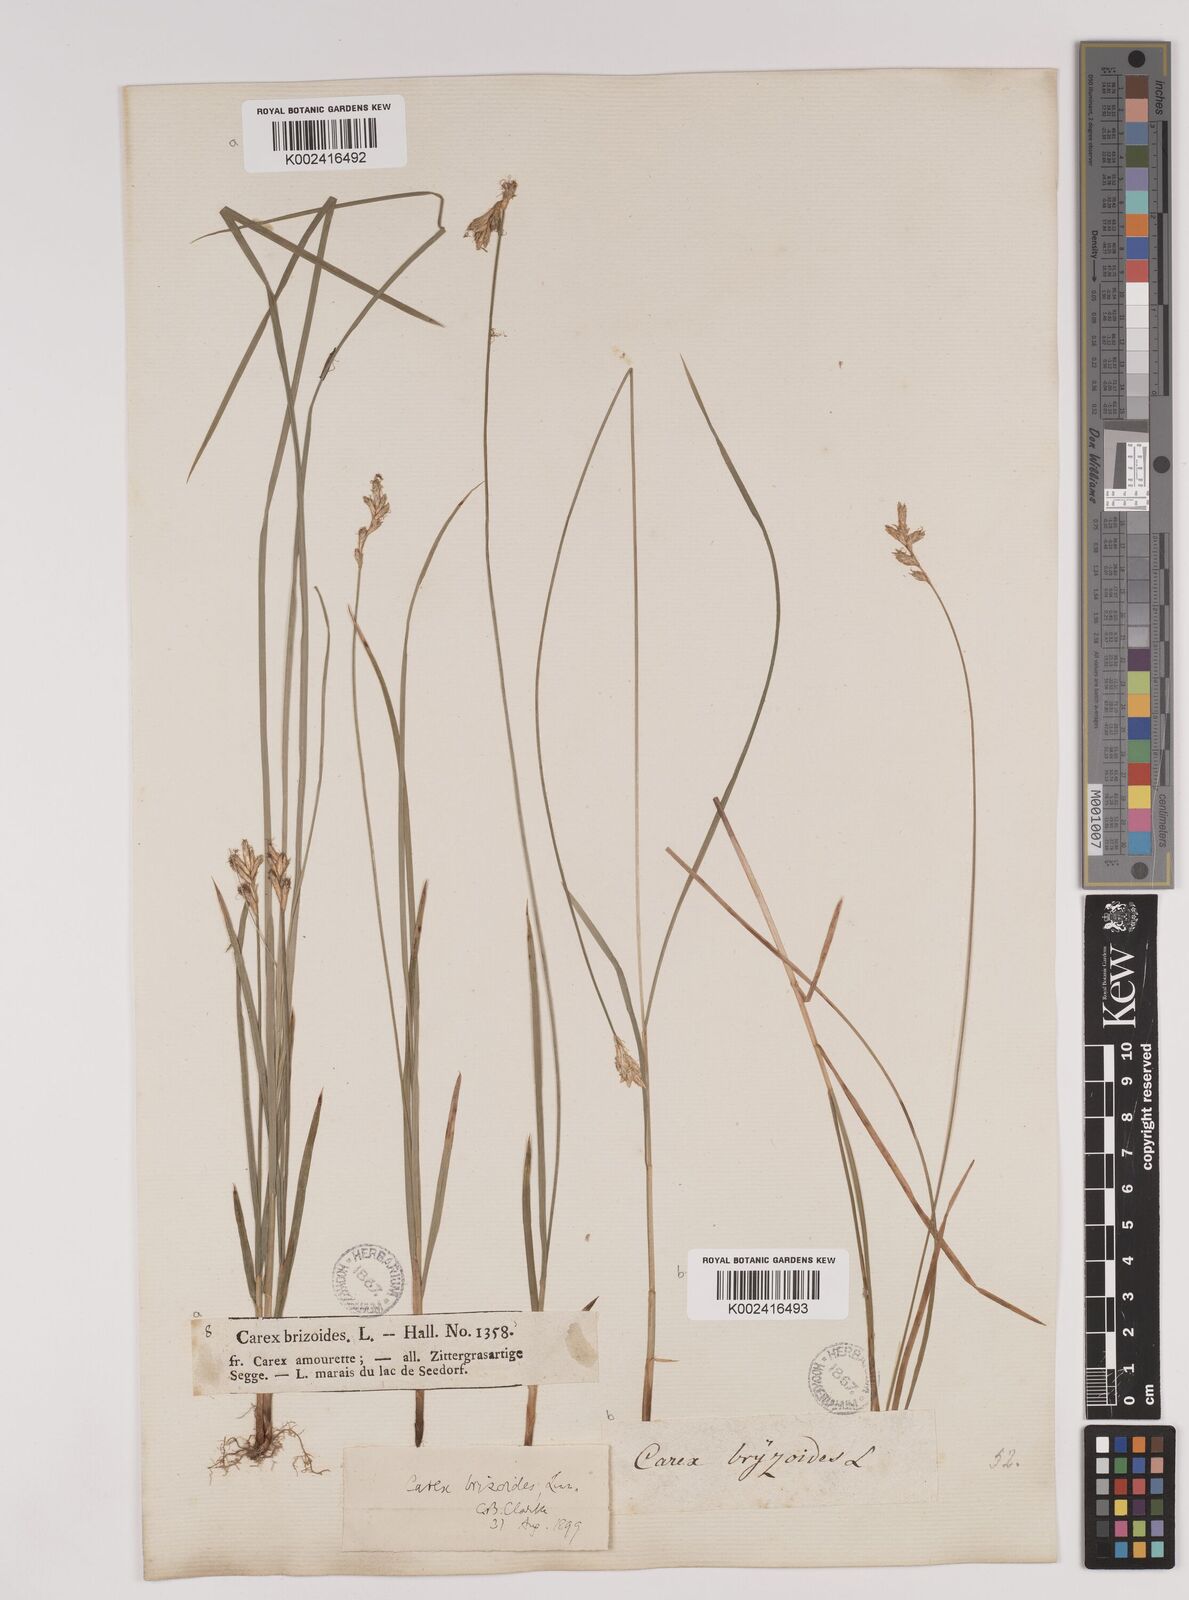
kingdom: Plantae
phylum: Tracheophyta
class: Liliopsida
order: Poales
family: Cyperaceae
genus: Carex
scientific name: Carex brizoides
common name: Quaking-grass sedge
